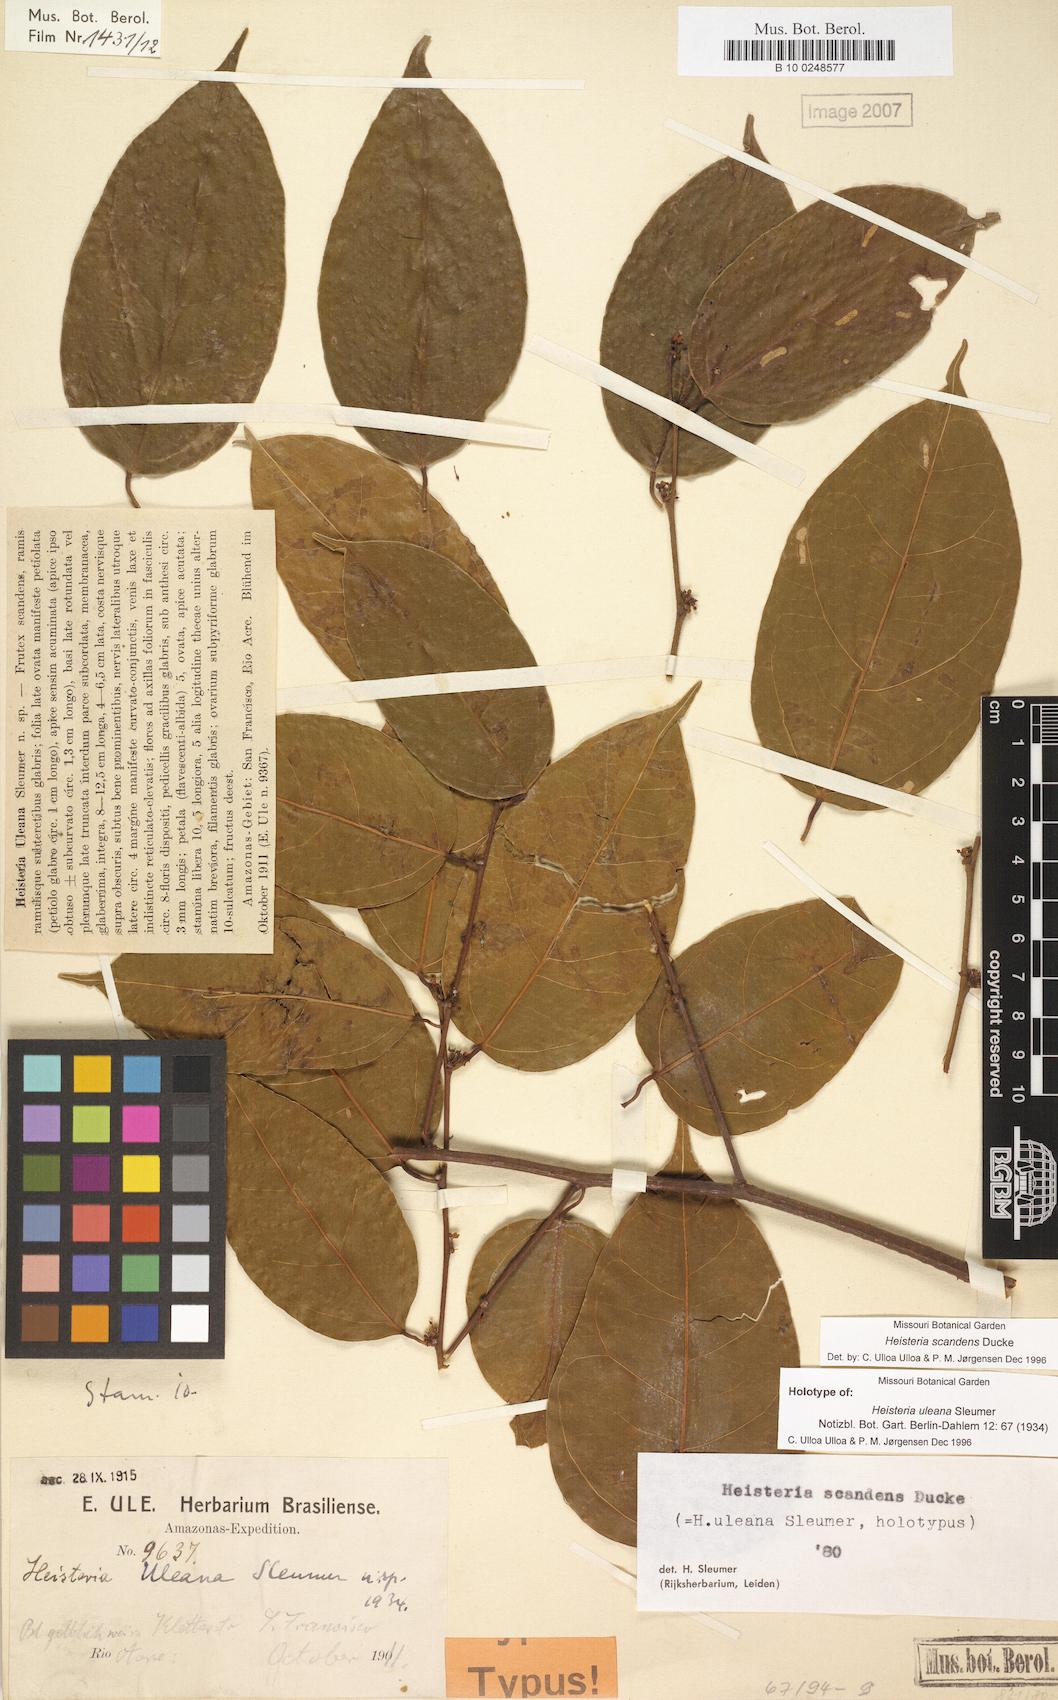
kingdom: Plantae
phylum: Tracheophyta
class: Magnoliopsida
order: Santalales
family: Erythropalaceae
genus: Heisteria
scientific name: Heisteria scandens
